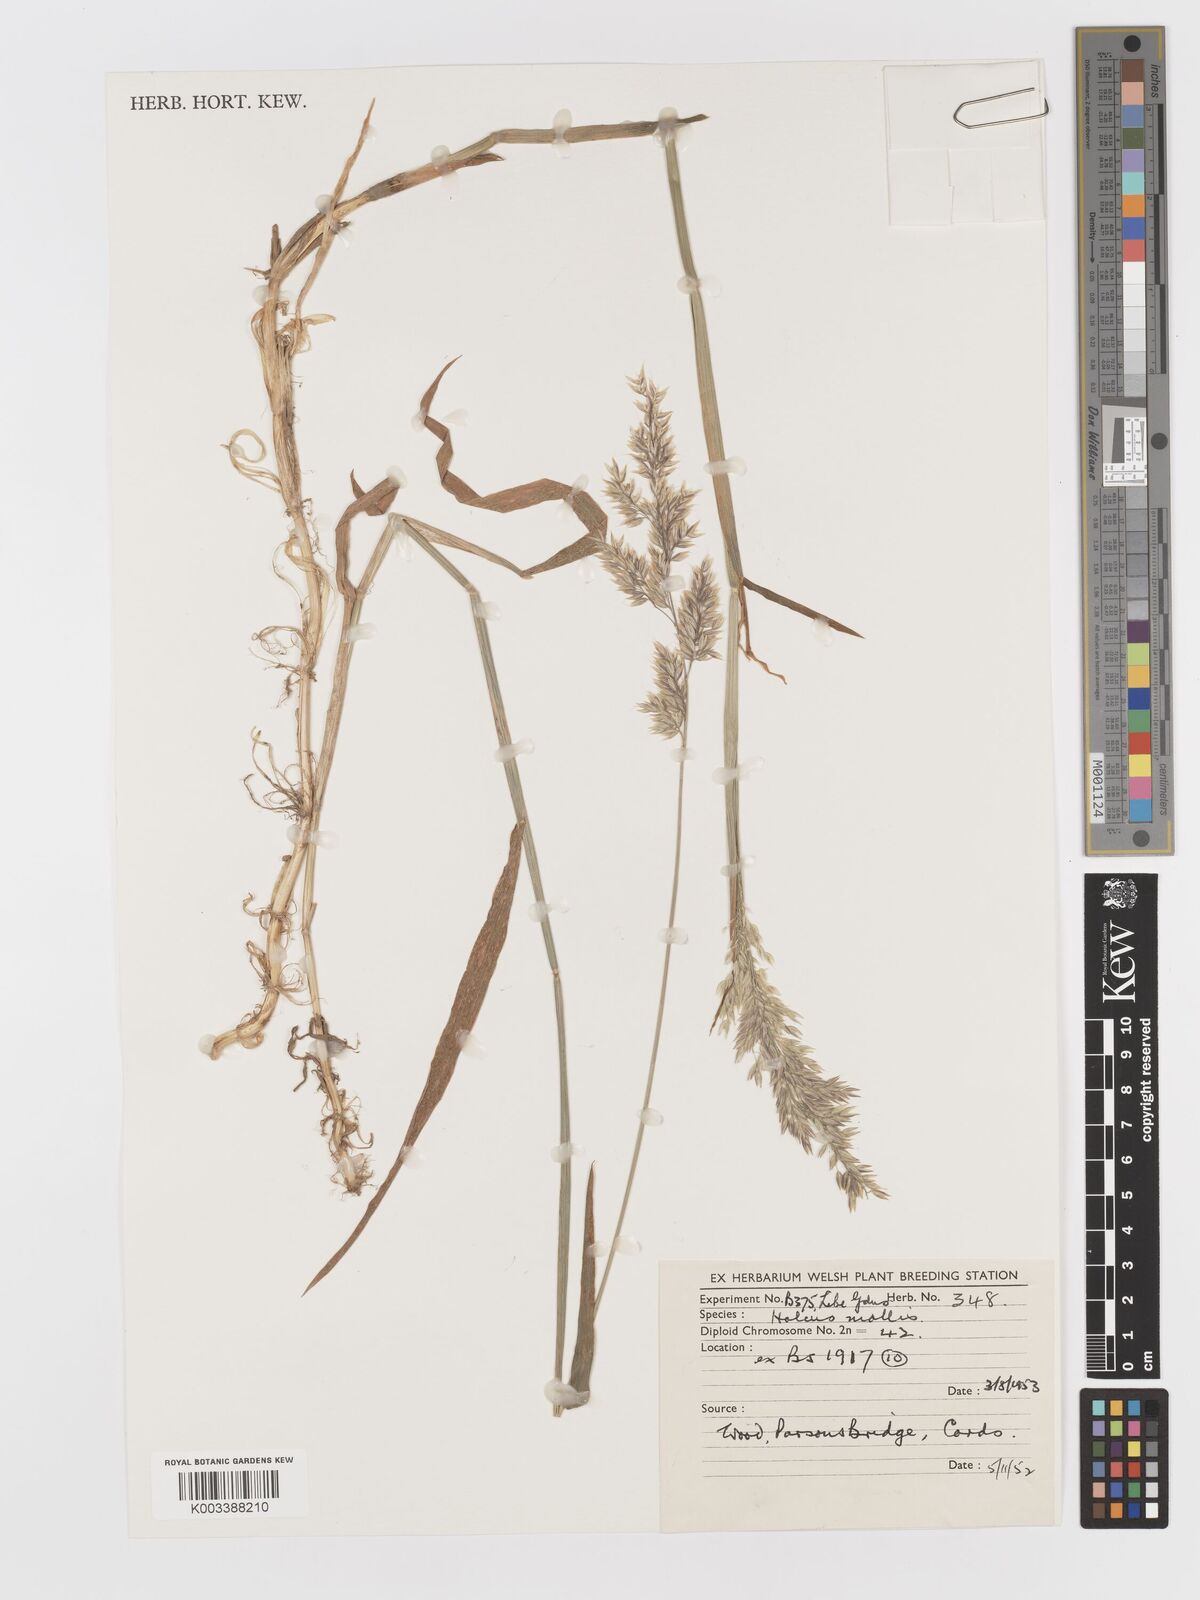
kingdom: Plantae
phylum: Tracheophyta
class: Liliopsida
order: Poales
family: Poaceae
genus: Holcus
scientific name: Holcus mollis
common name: Creeping velvetgrass
